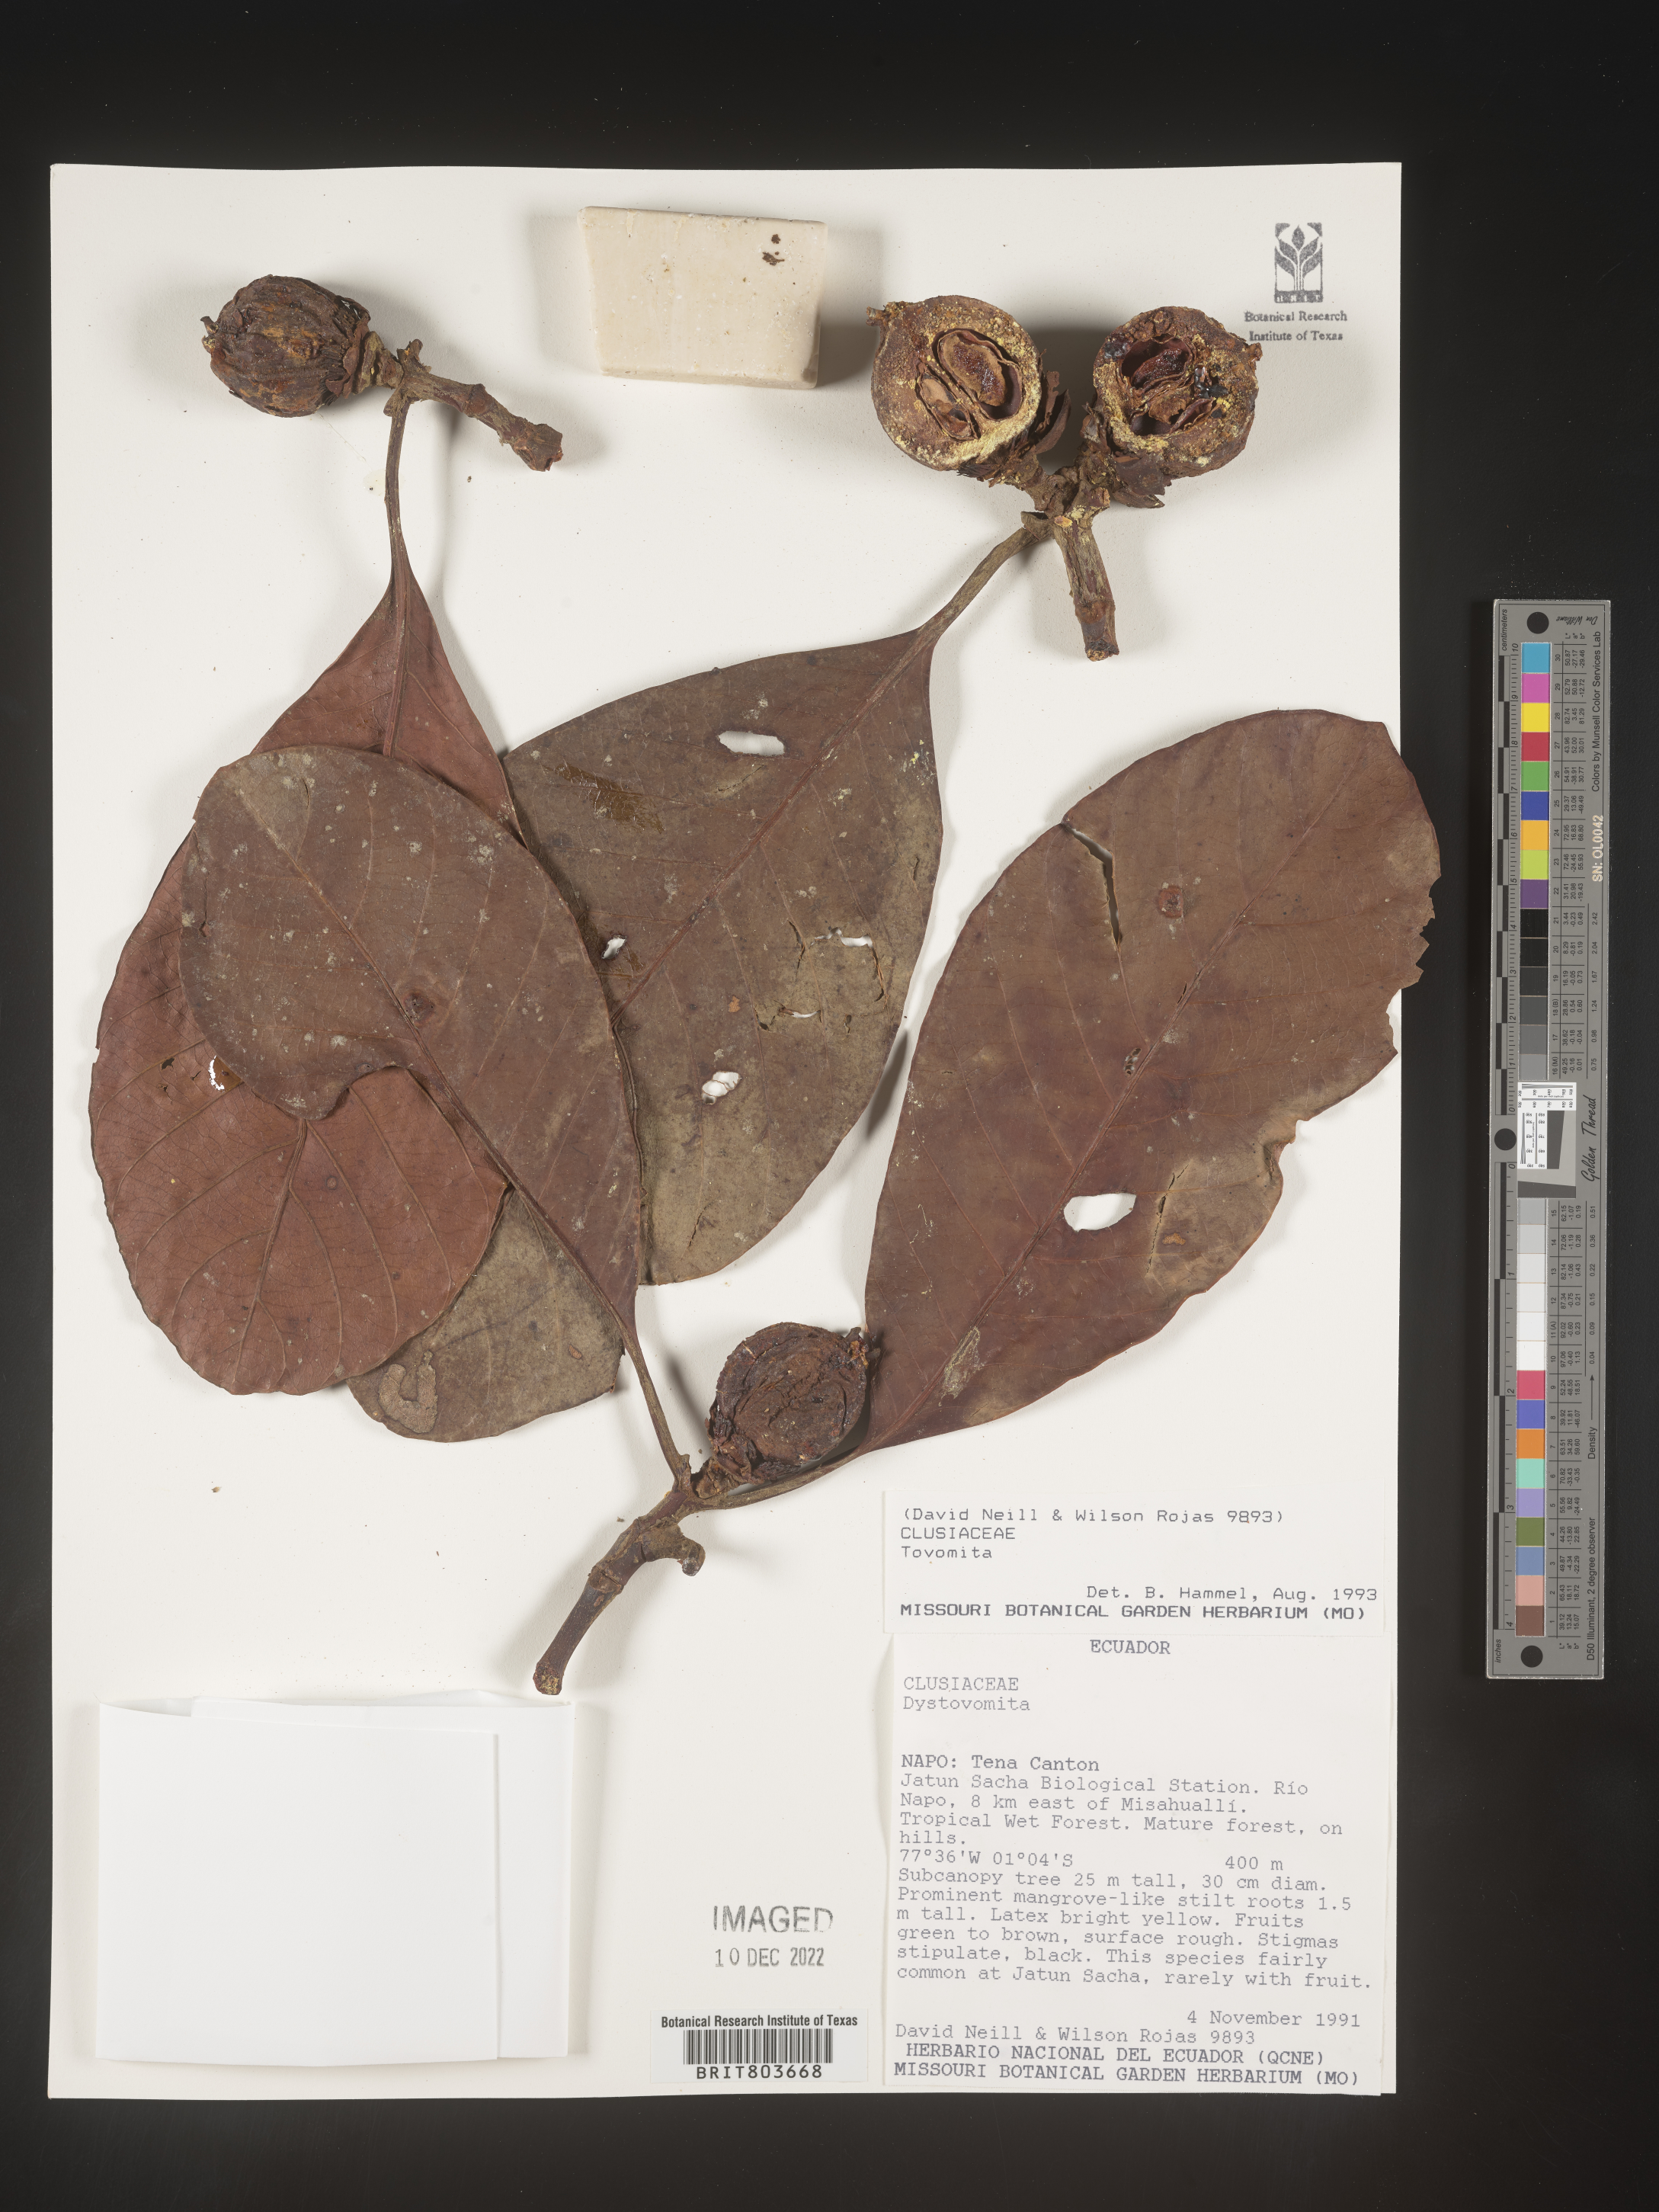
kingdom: Plantae
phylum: Tracheophyta
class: Magnoliopsida
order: Malpighiales
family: Clusiaceae
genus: Tovomita
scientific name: Tovomita
